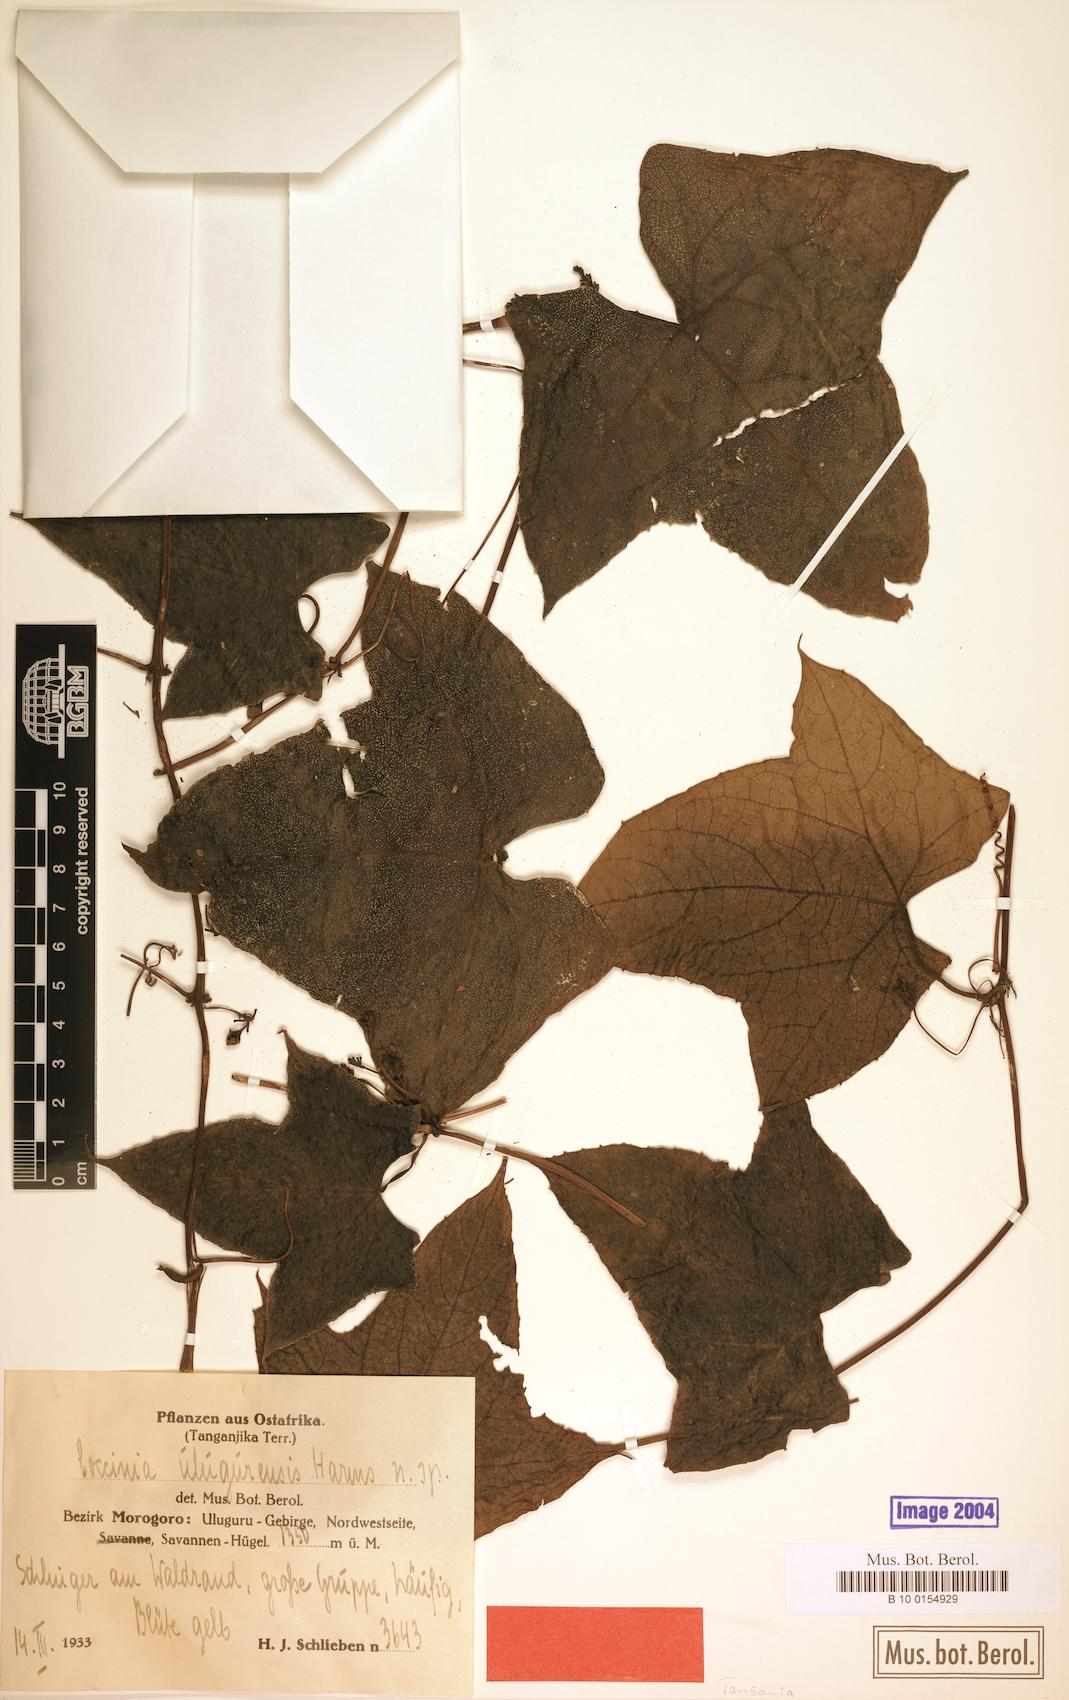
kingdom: Plantae
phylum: Tracheophyta
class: Magnoliopsida
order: Cucurbitales
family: Cucurbitaceae
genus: Coccinia
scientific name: Coccinia mildbraedii
